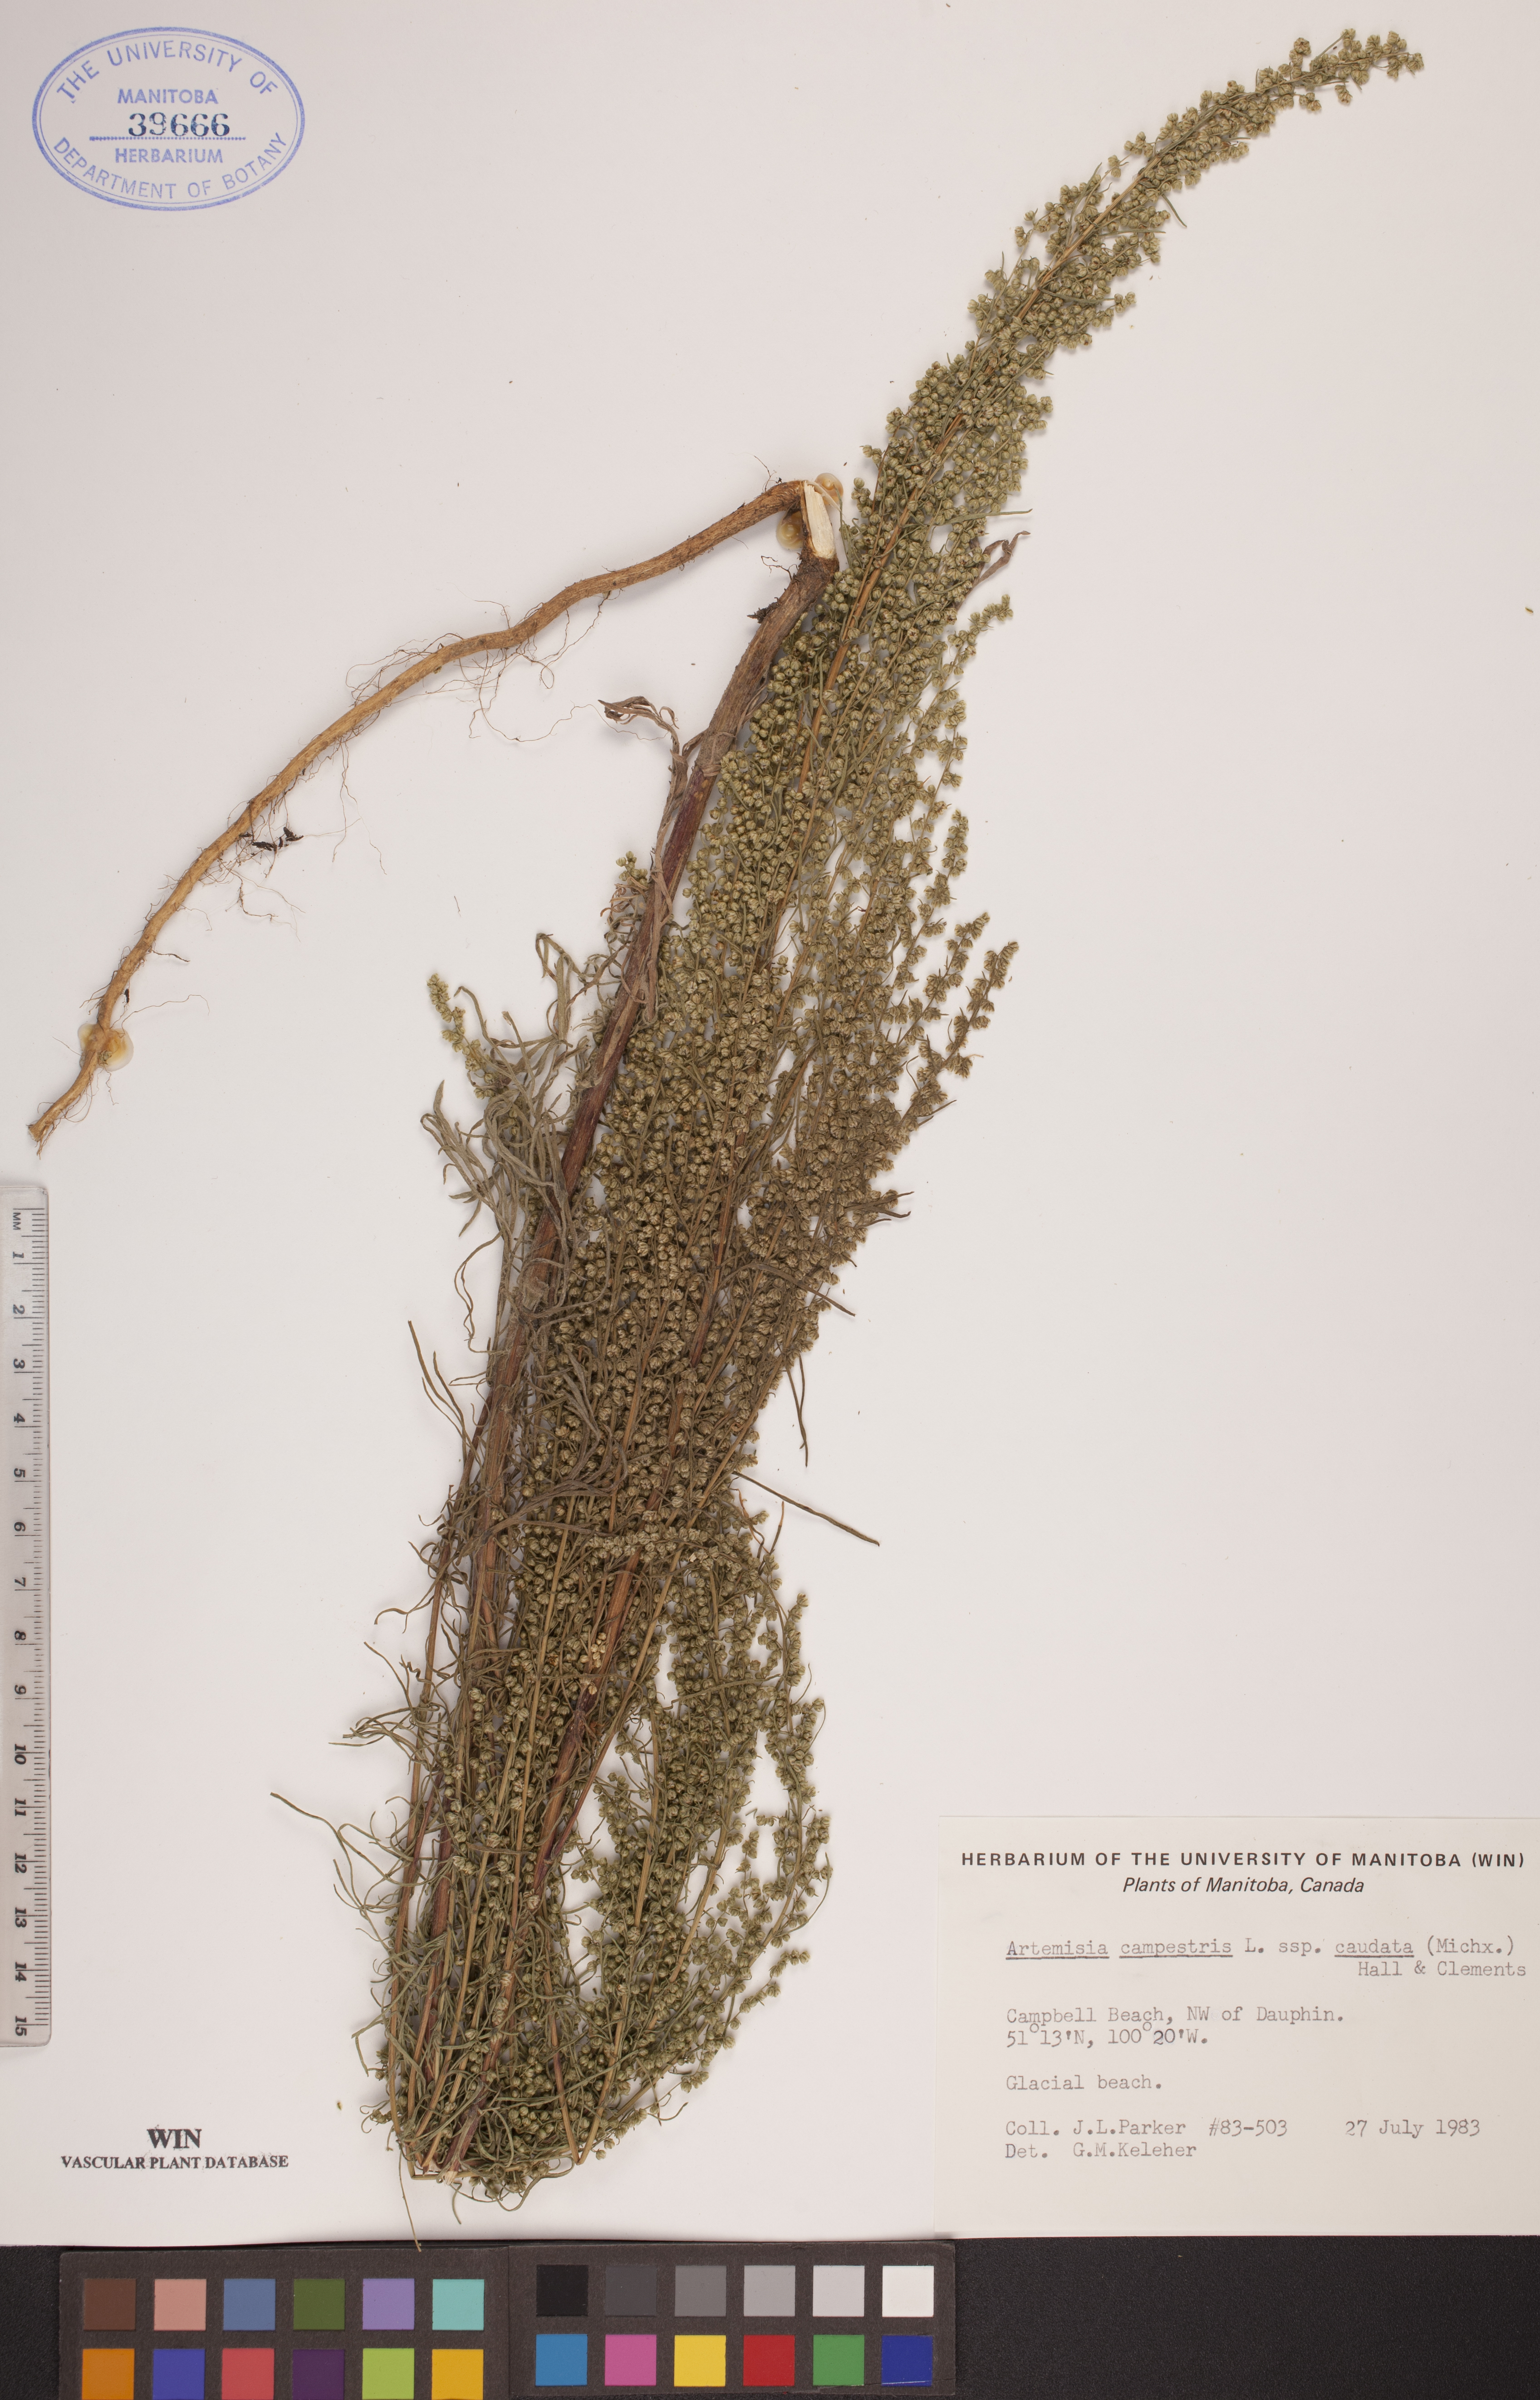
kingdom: Plantae
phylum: Tracheophyta
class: Magnoliopsida
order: Asterales
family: Asteraceae
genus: Artemisia
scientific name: Artemisia campestris
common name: Field wormwood
